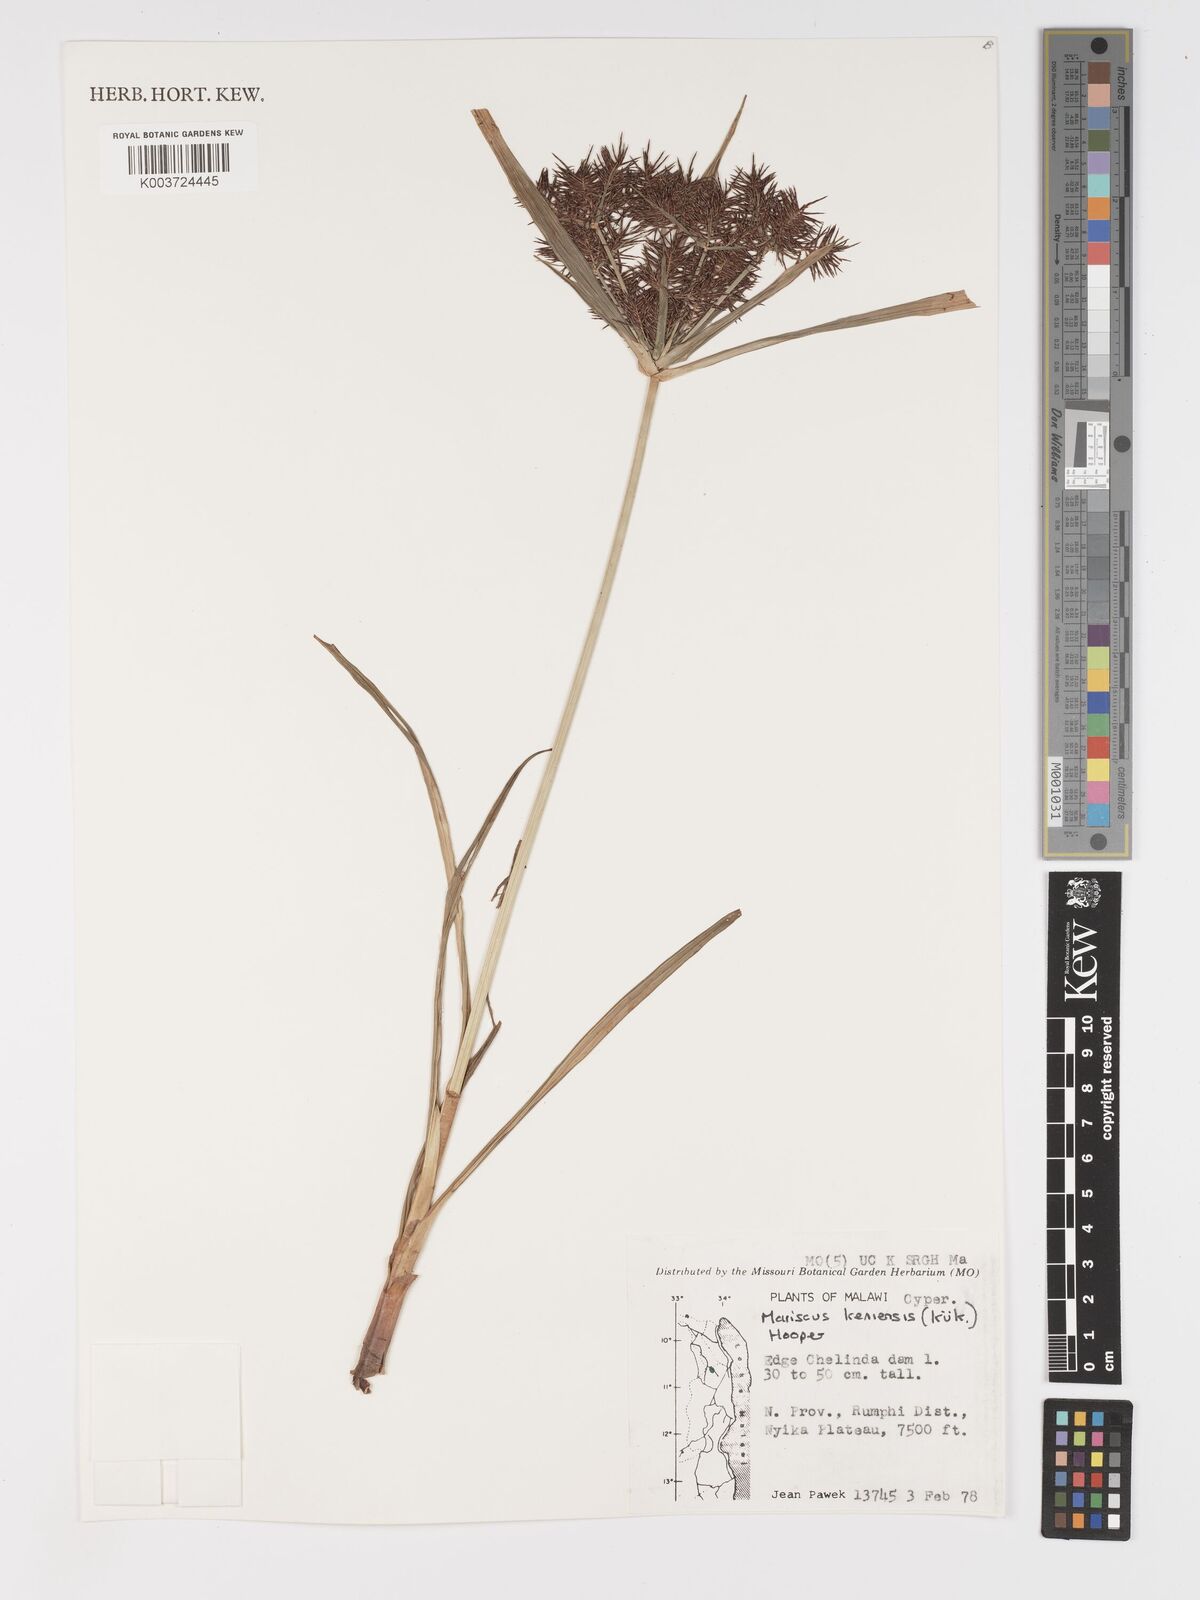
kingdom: Plantae
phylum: Tracheophyta
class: Liliopsida
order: Poales
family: Cyperaceae
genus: Cyperus
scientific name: Cyperus
